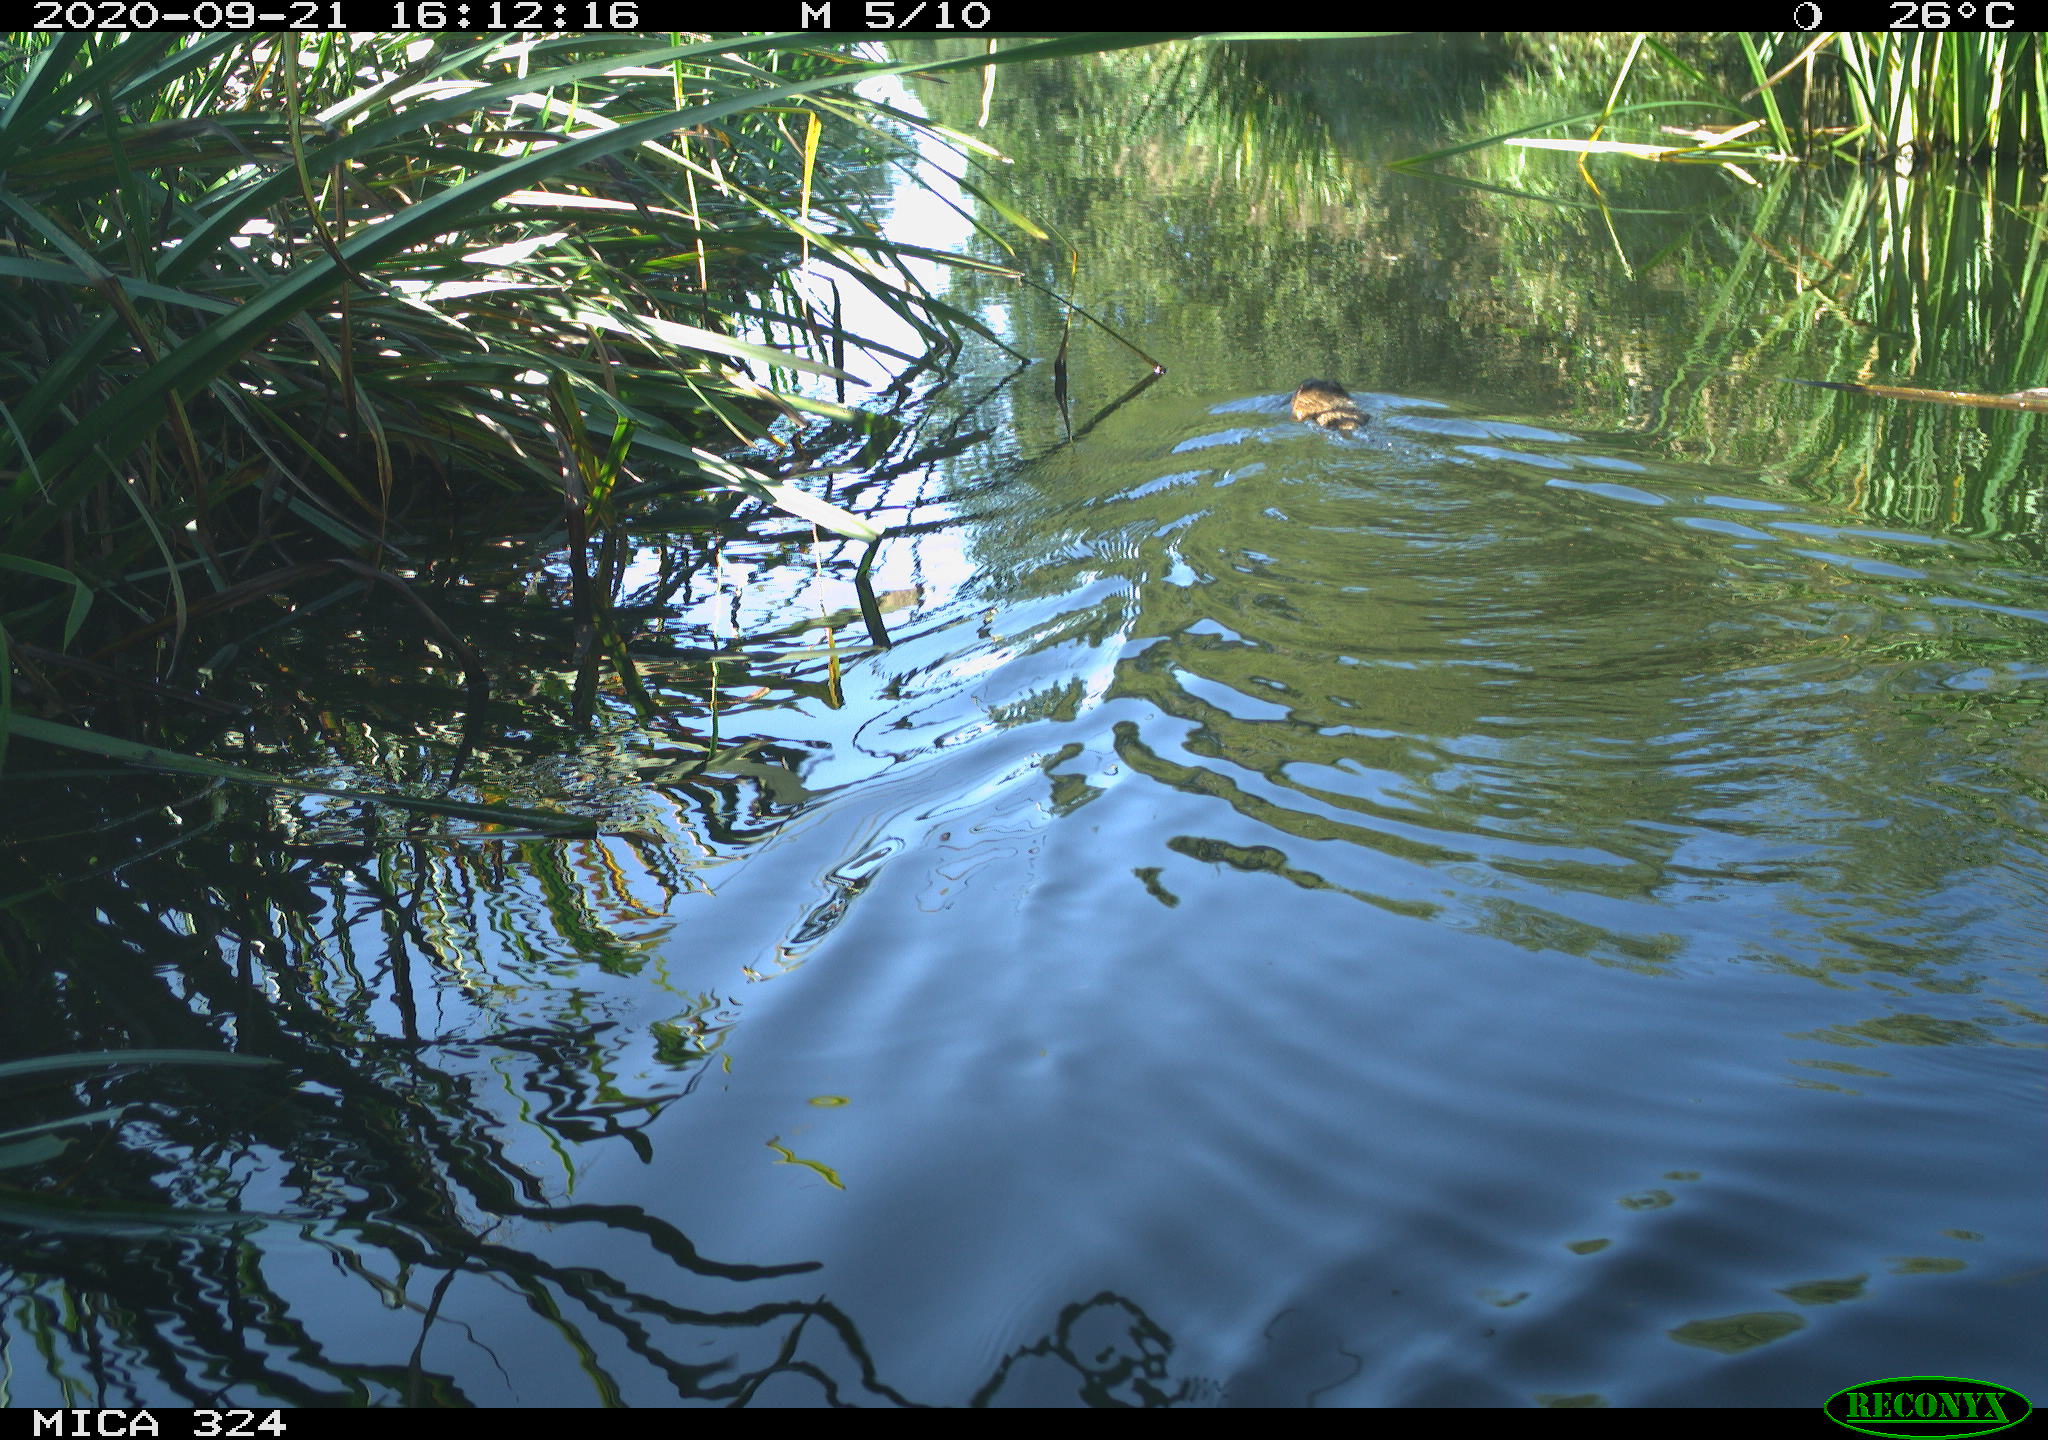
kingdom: Animalia
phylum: Chordata
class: Mammalia
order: Rodentia
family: Cricetidae
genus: Ondatra
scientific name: Ondatra zibethicus
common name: Muskrat
